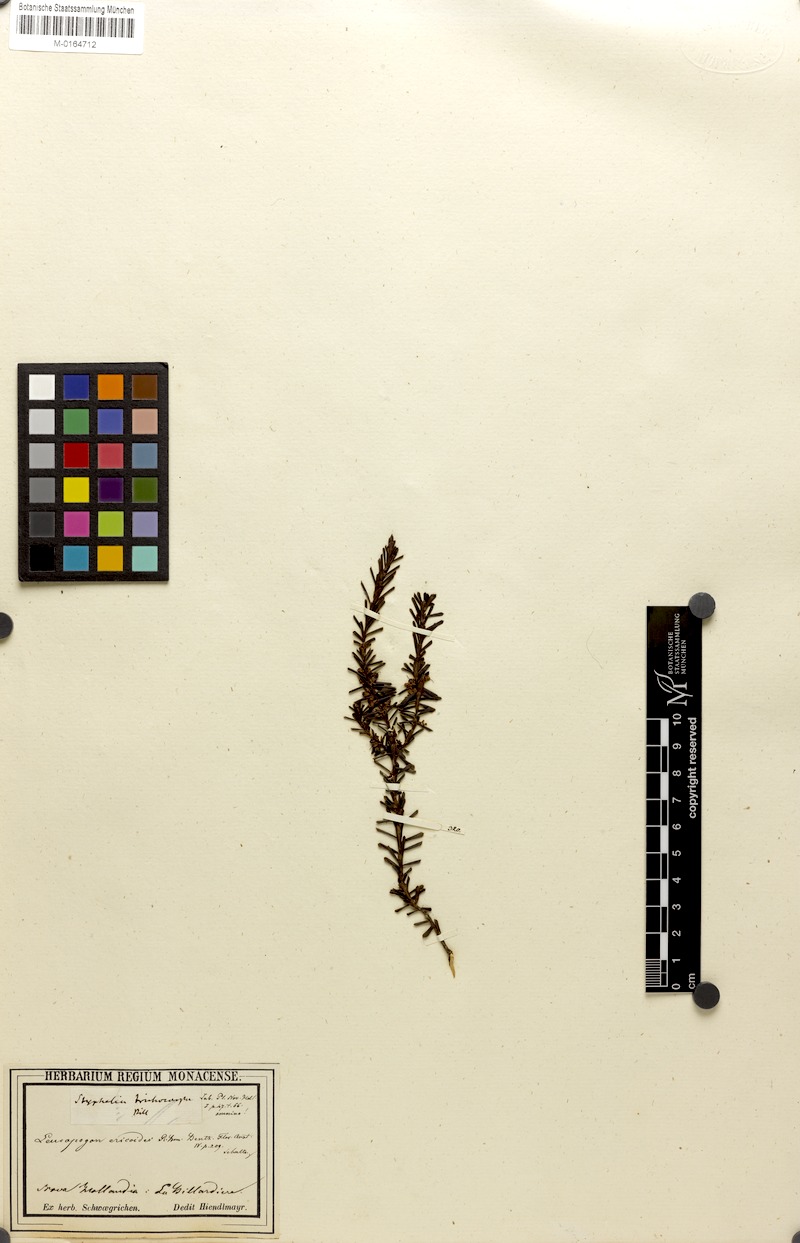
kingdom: Plantae
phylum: Tracheophyta
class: Magnoliopsida
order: Ericales
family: Ericaceae
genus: Styphelia
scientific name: Styphelia ericoides
